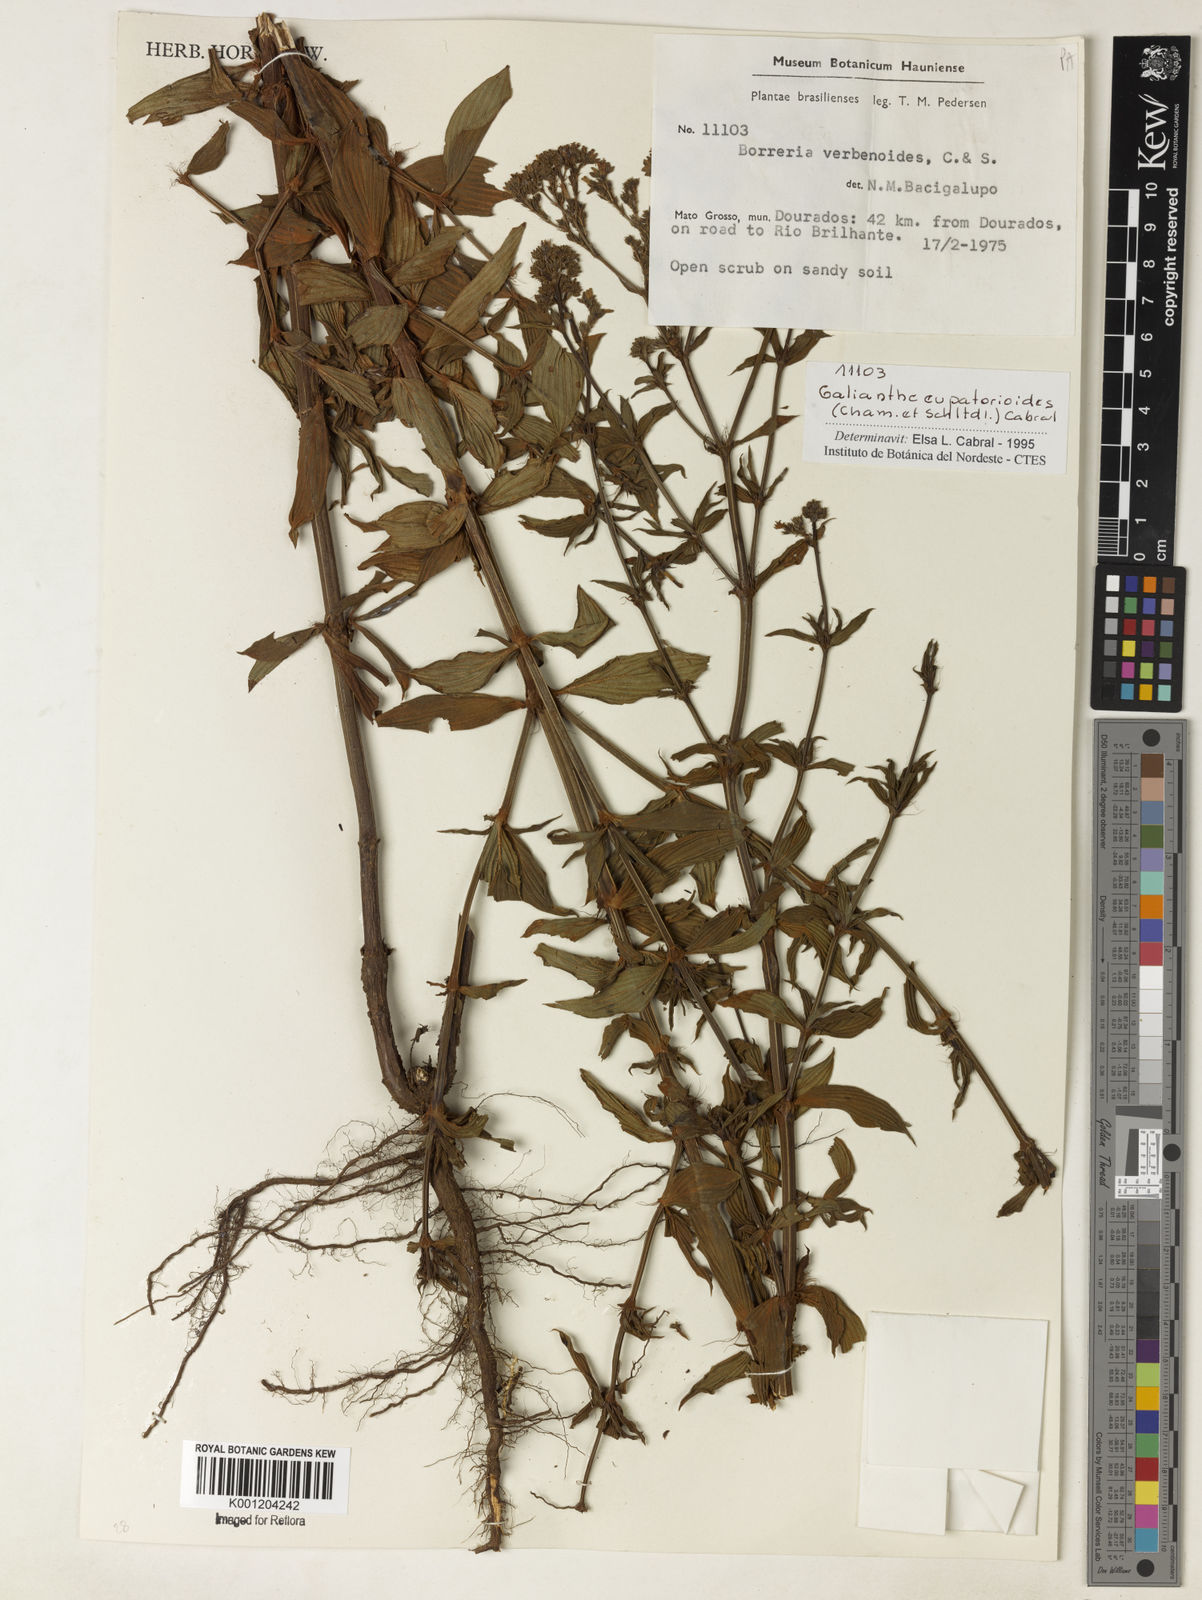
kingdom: Plantae
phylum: Tracheophyta
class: Magnoliopsida
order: Gentianales
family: Rubiaceae
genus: Galianthe
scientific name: Galianthe eupatorioides
